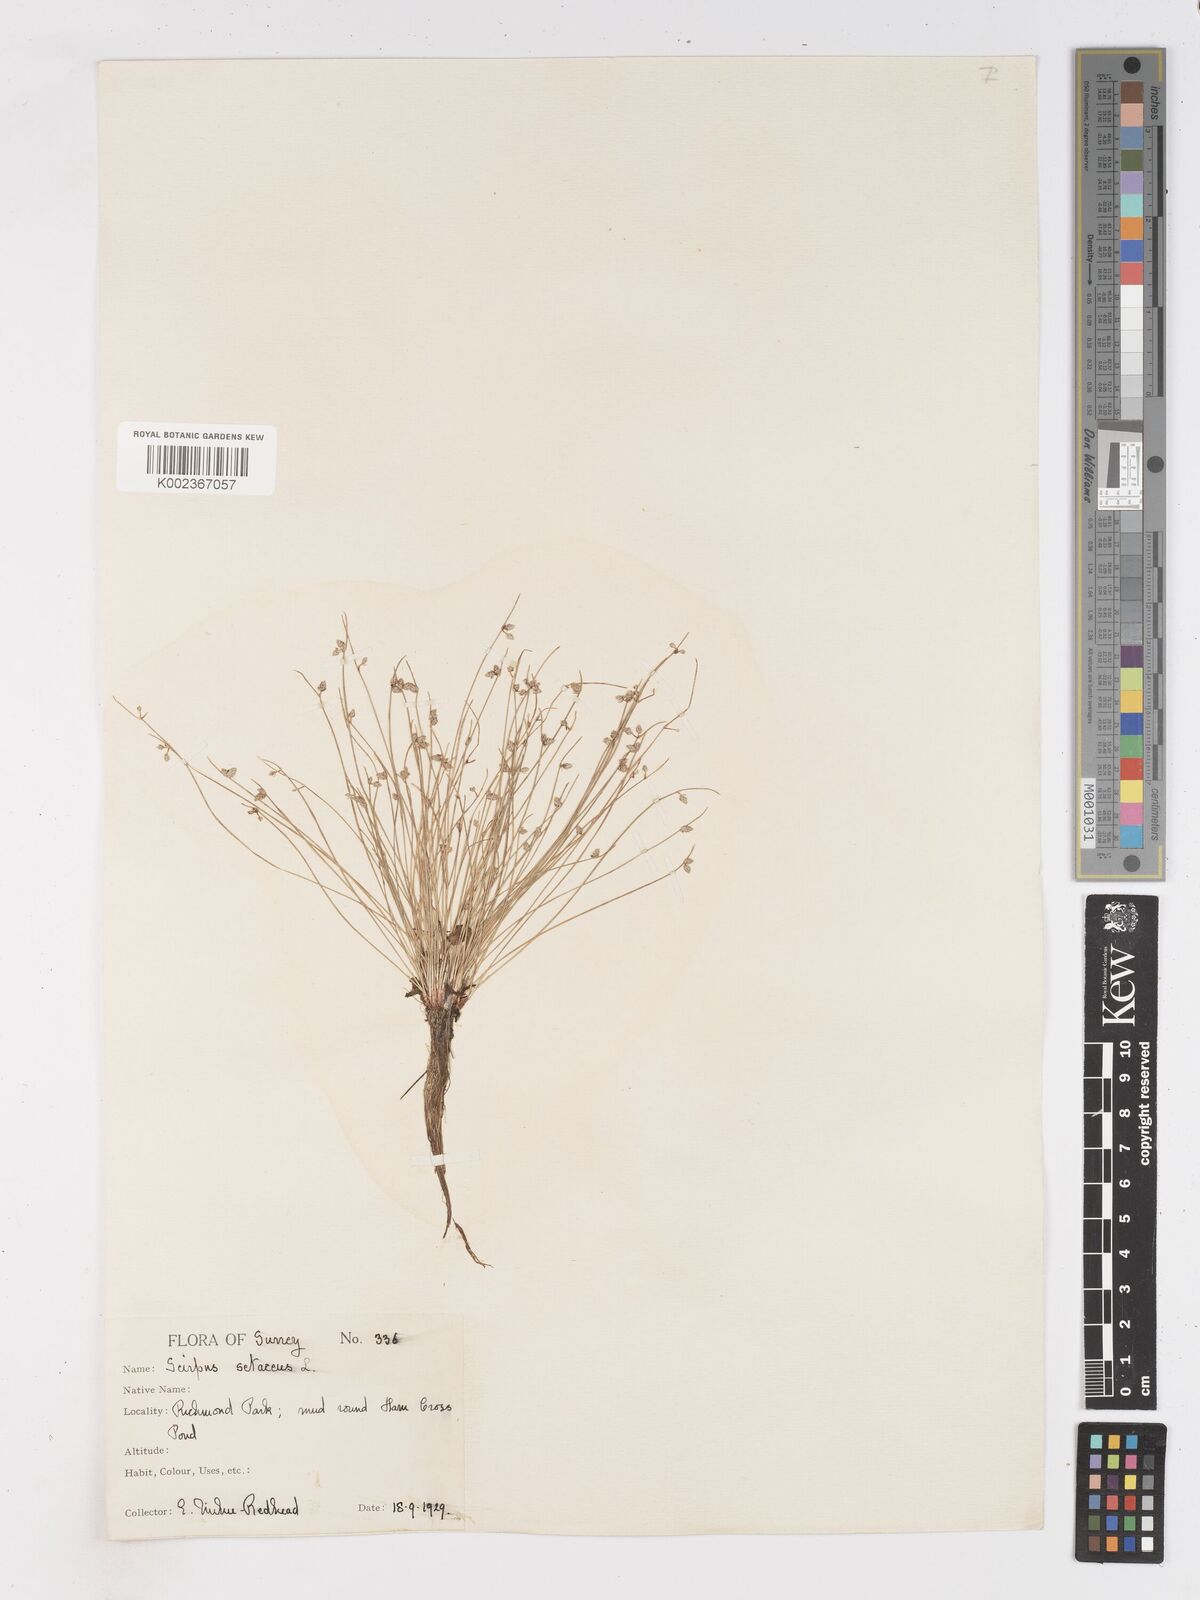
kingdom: Plantae
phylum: Tracheophyta
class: Liliopsida
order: Poales
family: Cyperaceae
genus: Isolepis
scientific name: Isolepis setacea
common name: Bristle club-rush
